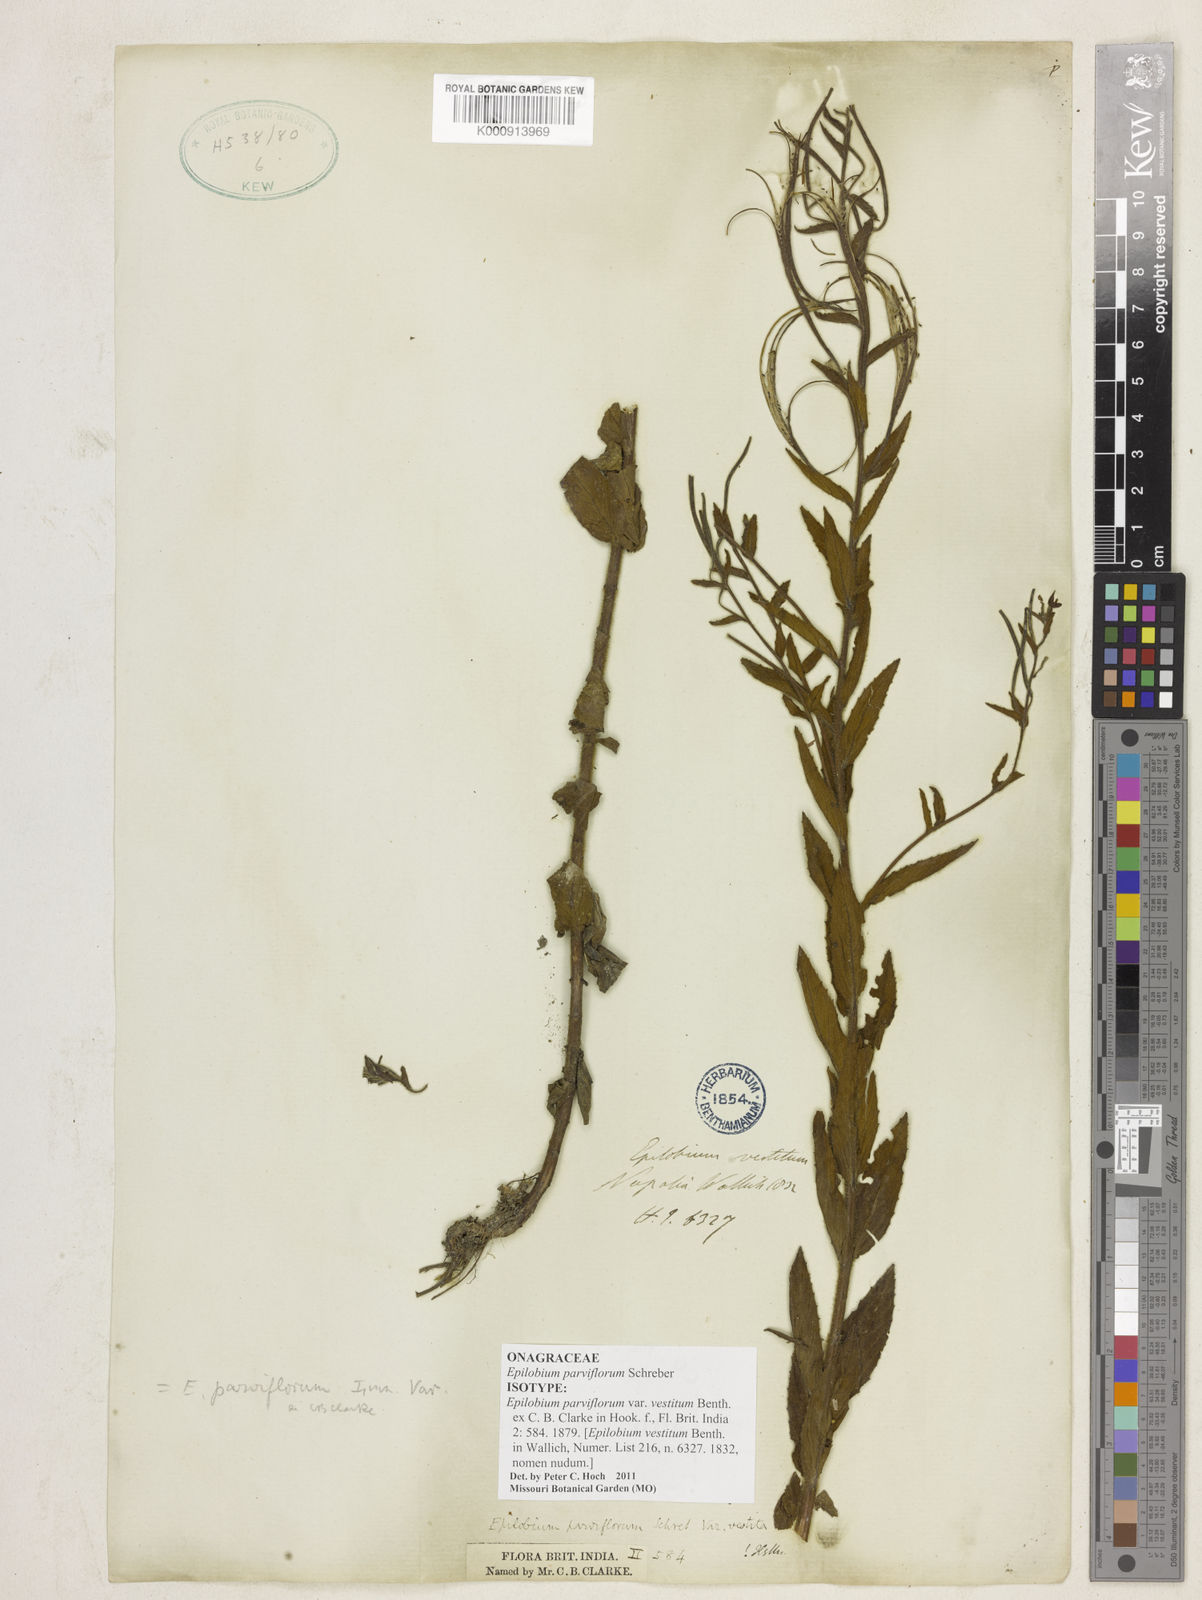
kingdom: Plantae
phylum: Tracheophyta
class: Magnoliopsida
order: Myrtales
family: Onagraceae
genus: Epilobium
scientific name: Epilobium parviflorum
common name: Hoary willowherb
